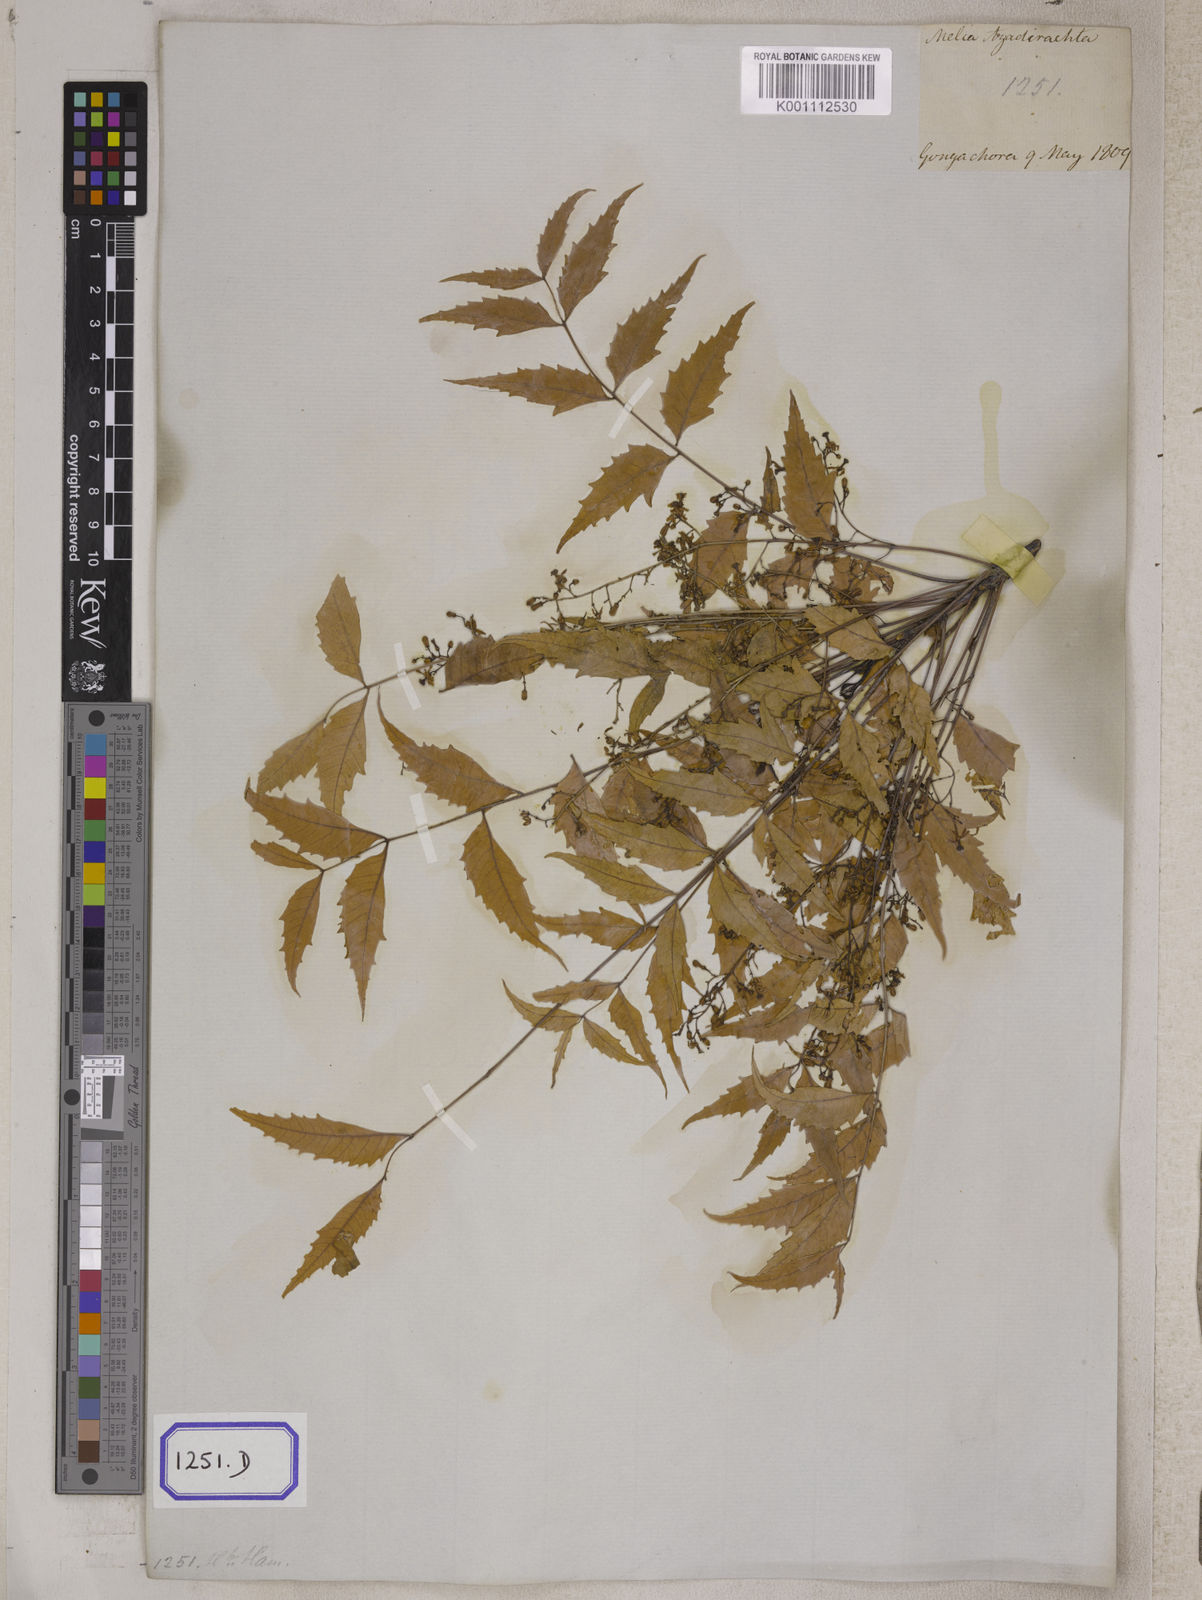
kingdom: Plantae
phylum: Tracheophyta
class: Magnoliopsida
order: Sapindales
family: Meliaceae
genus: Azadirachta
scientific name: Azadirachta indica
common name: Neem
